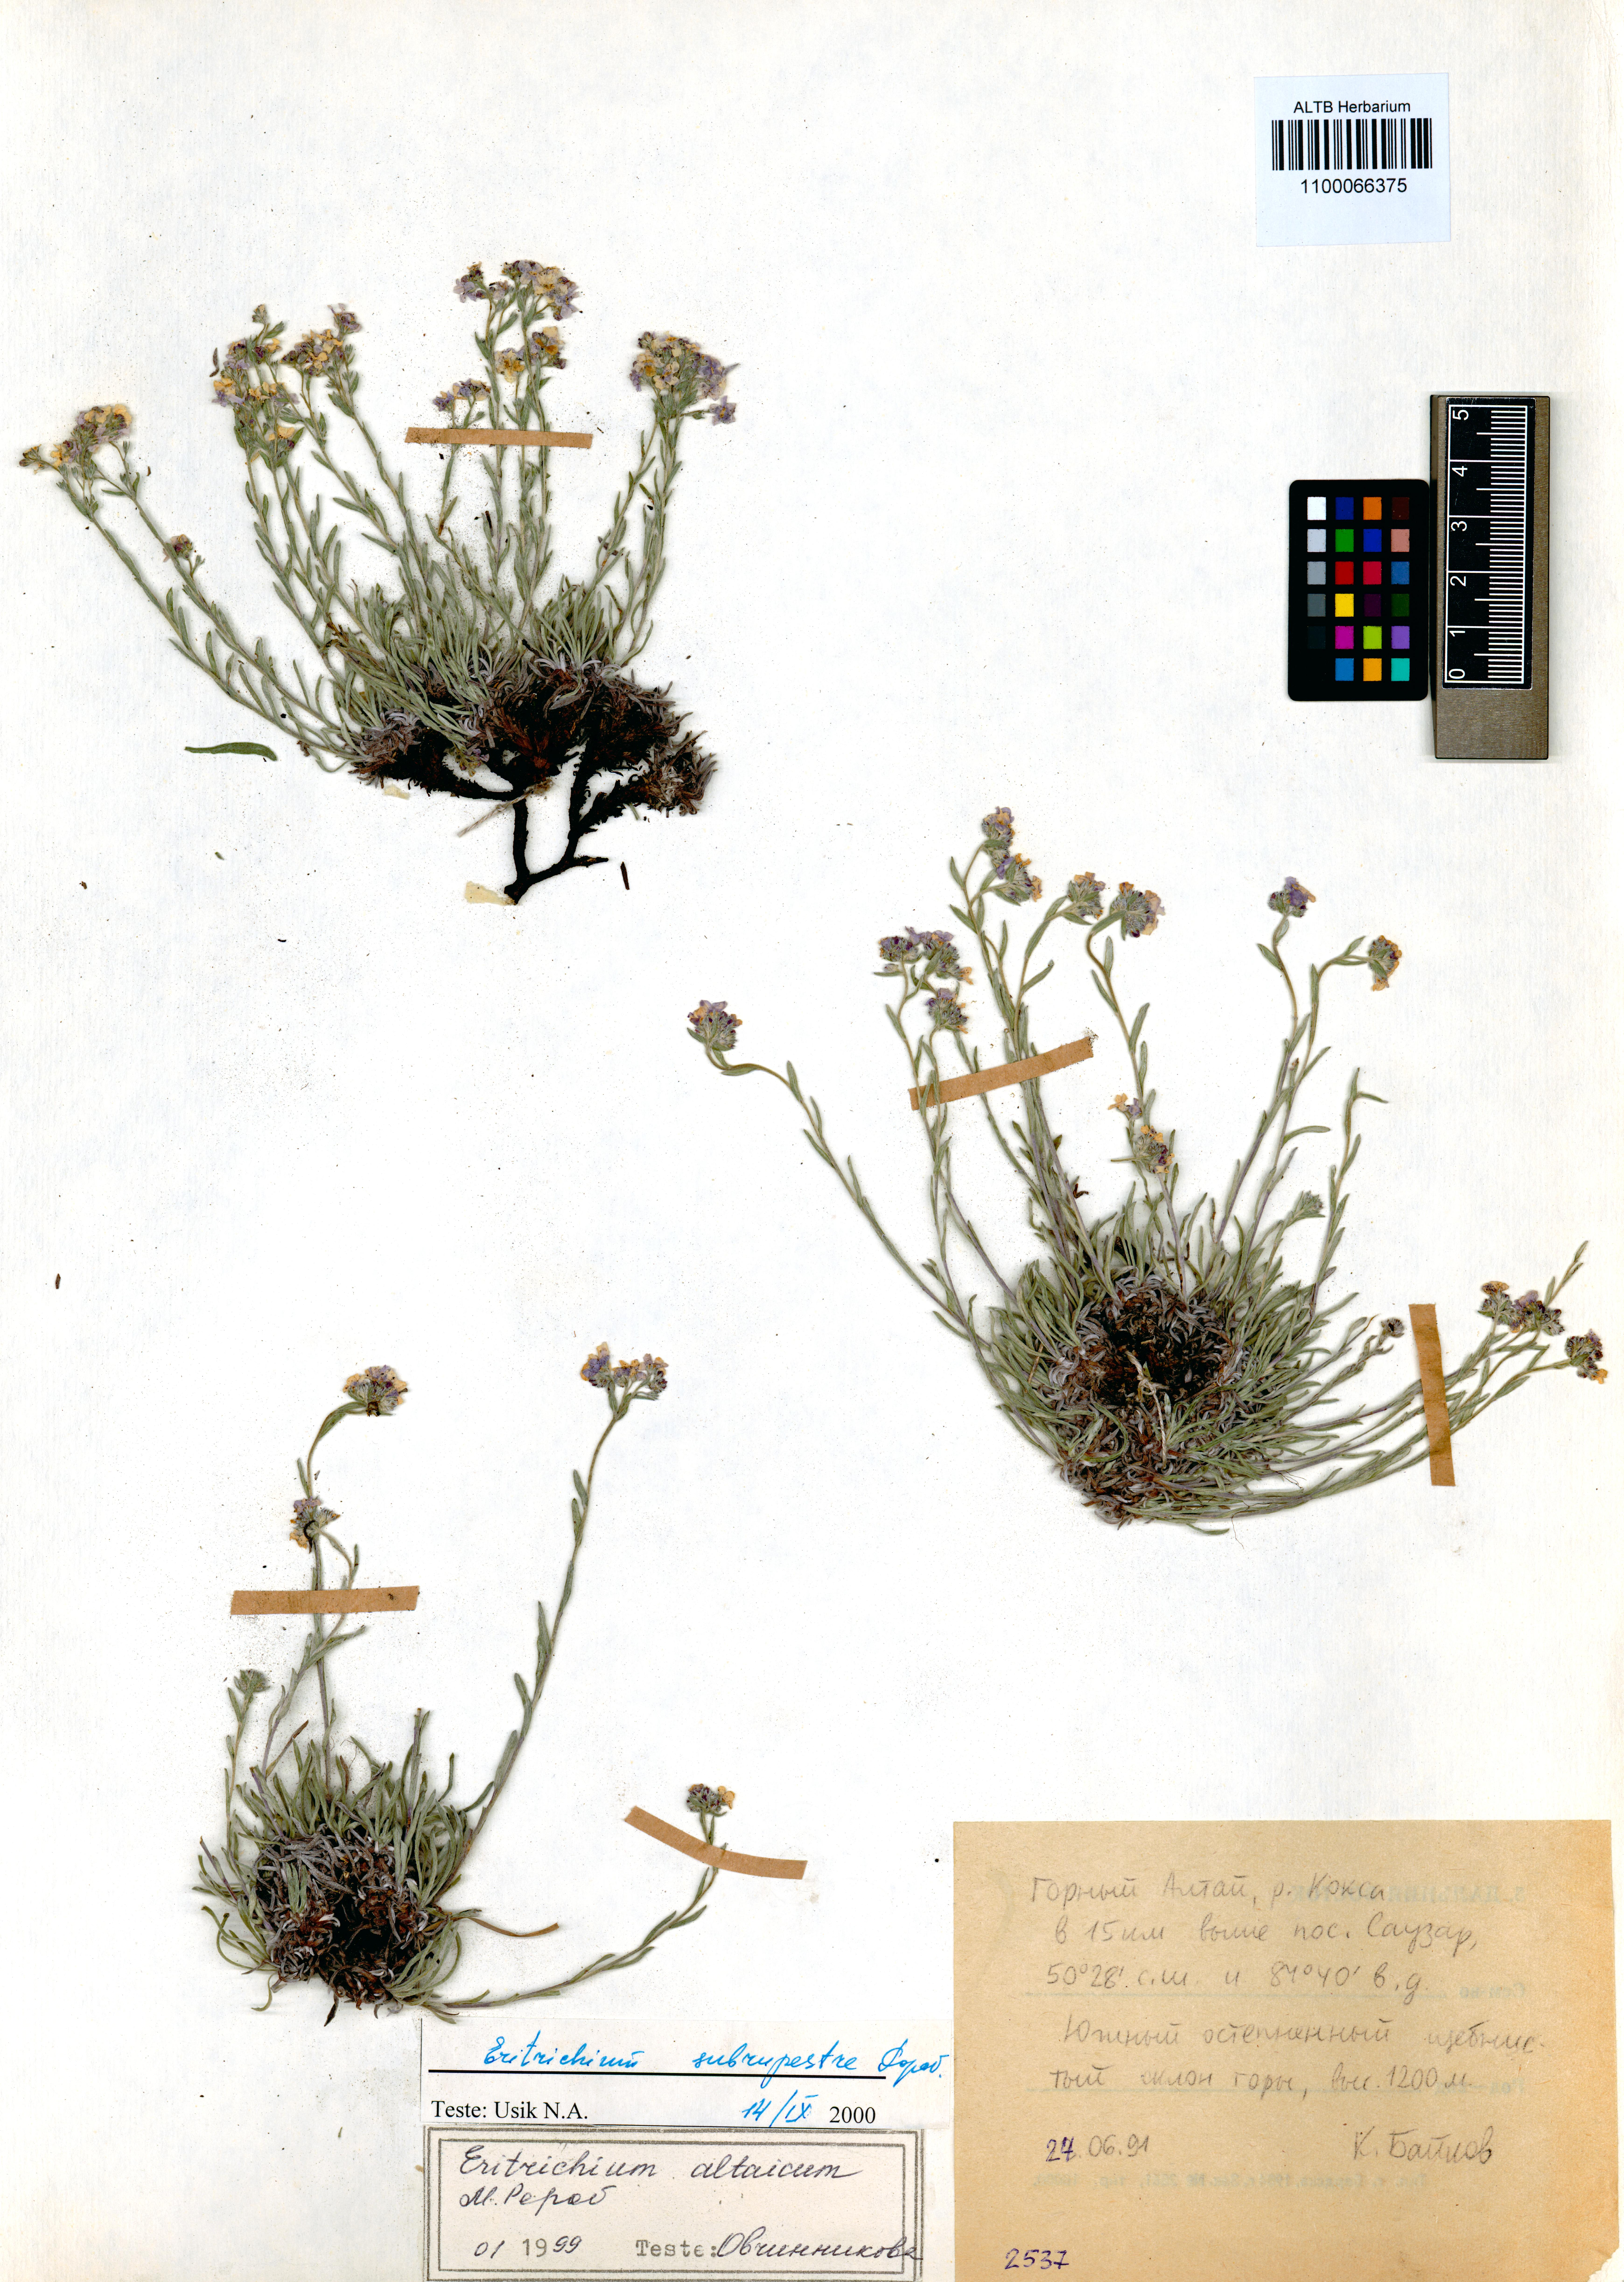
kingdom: Plantae
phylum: Tracheophyta
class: Magnoliopsida
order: Boraginales
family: Boraginaceae
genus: Eritrichium
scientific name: Eritrichium pauciflorum
